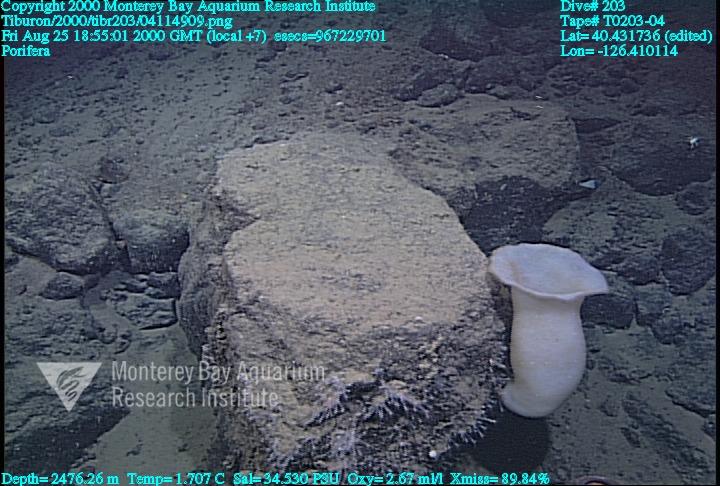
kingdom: Animalia
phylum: Porifera
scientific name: Porifera
